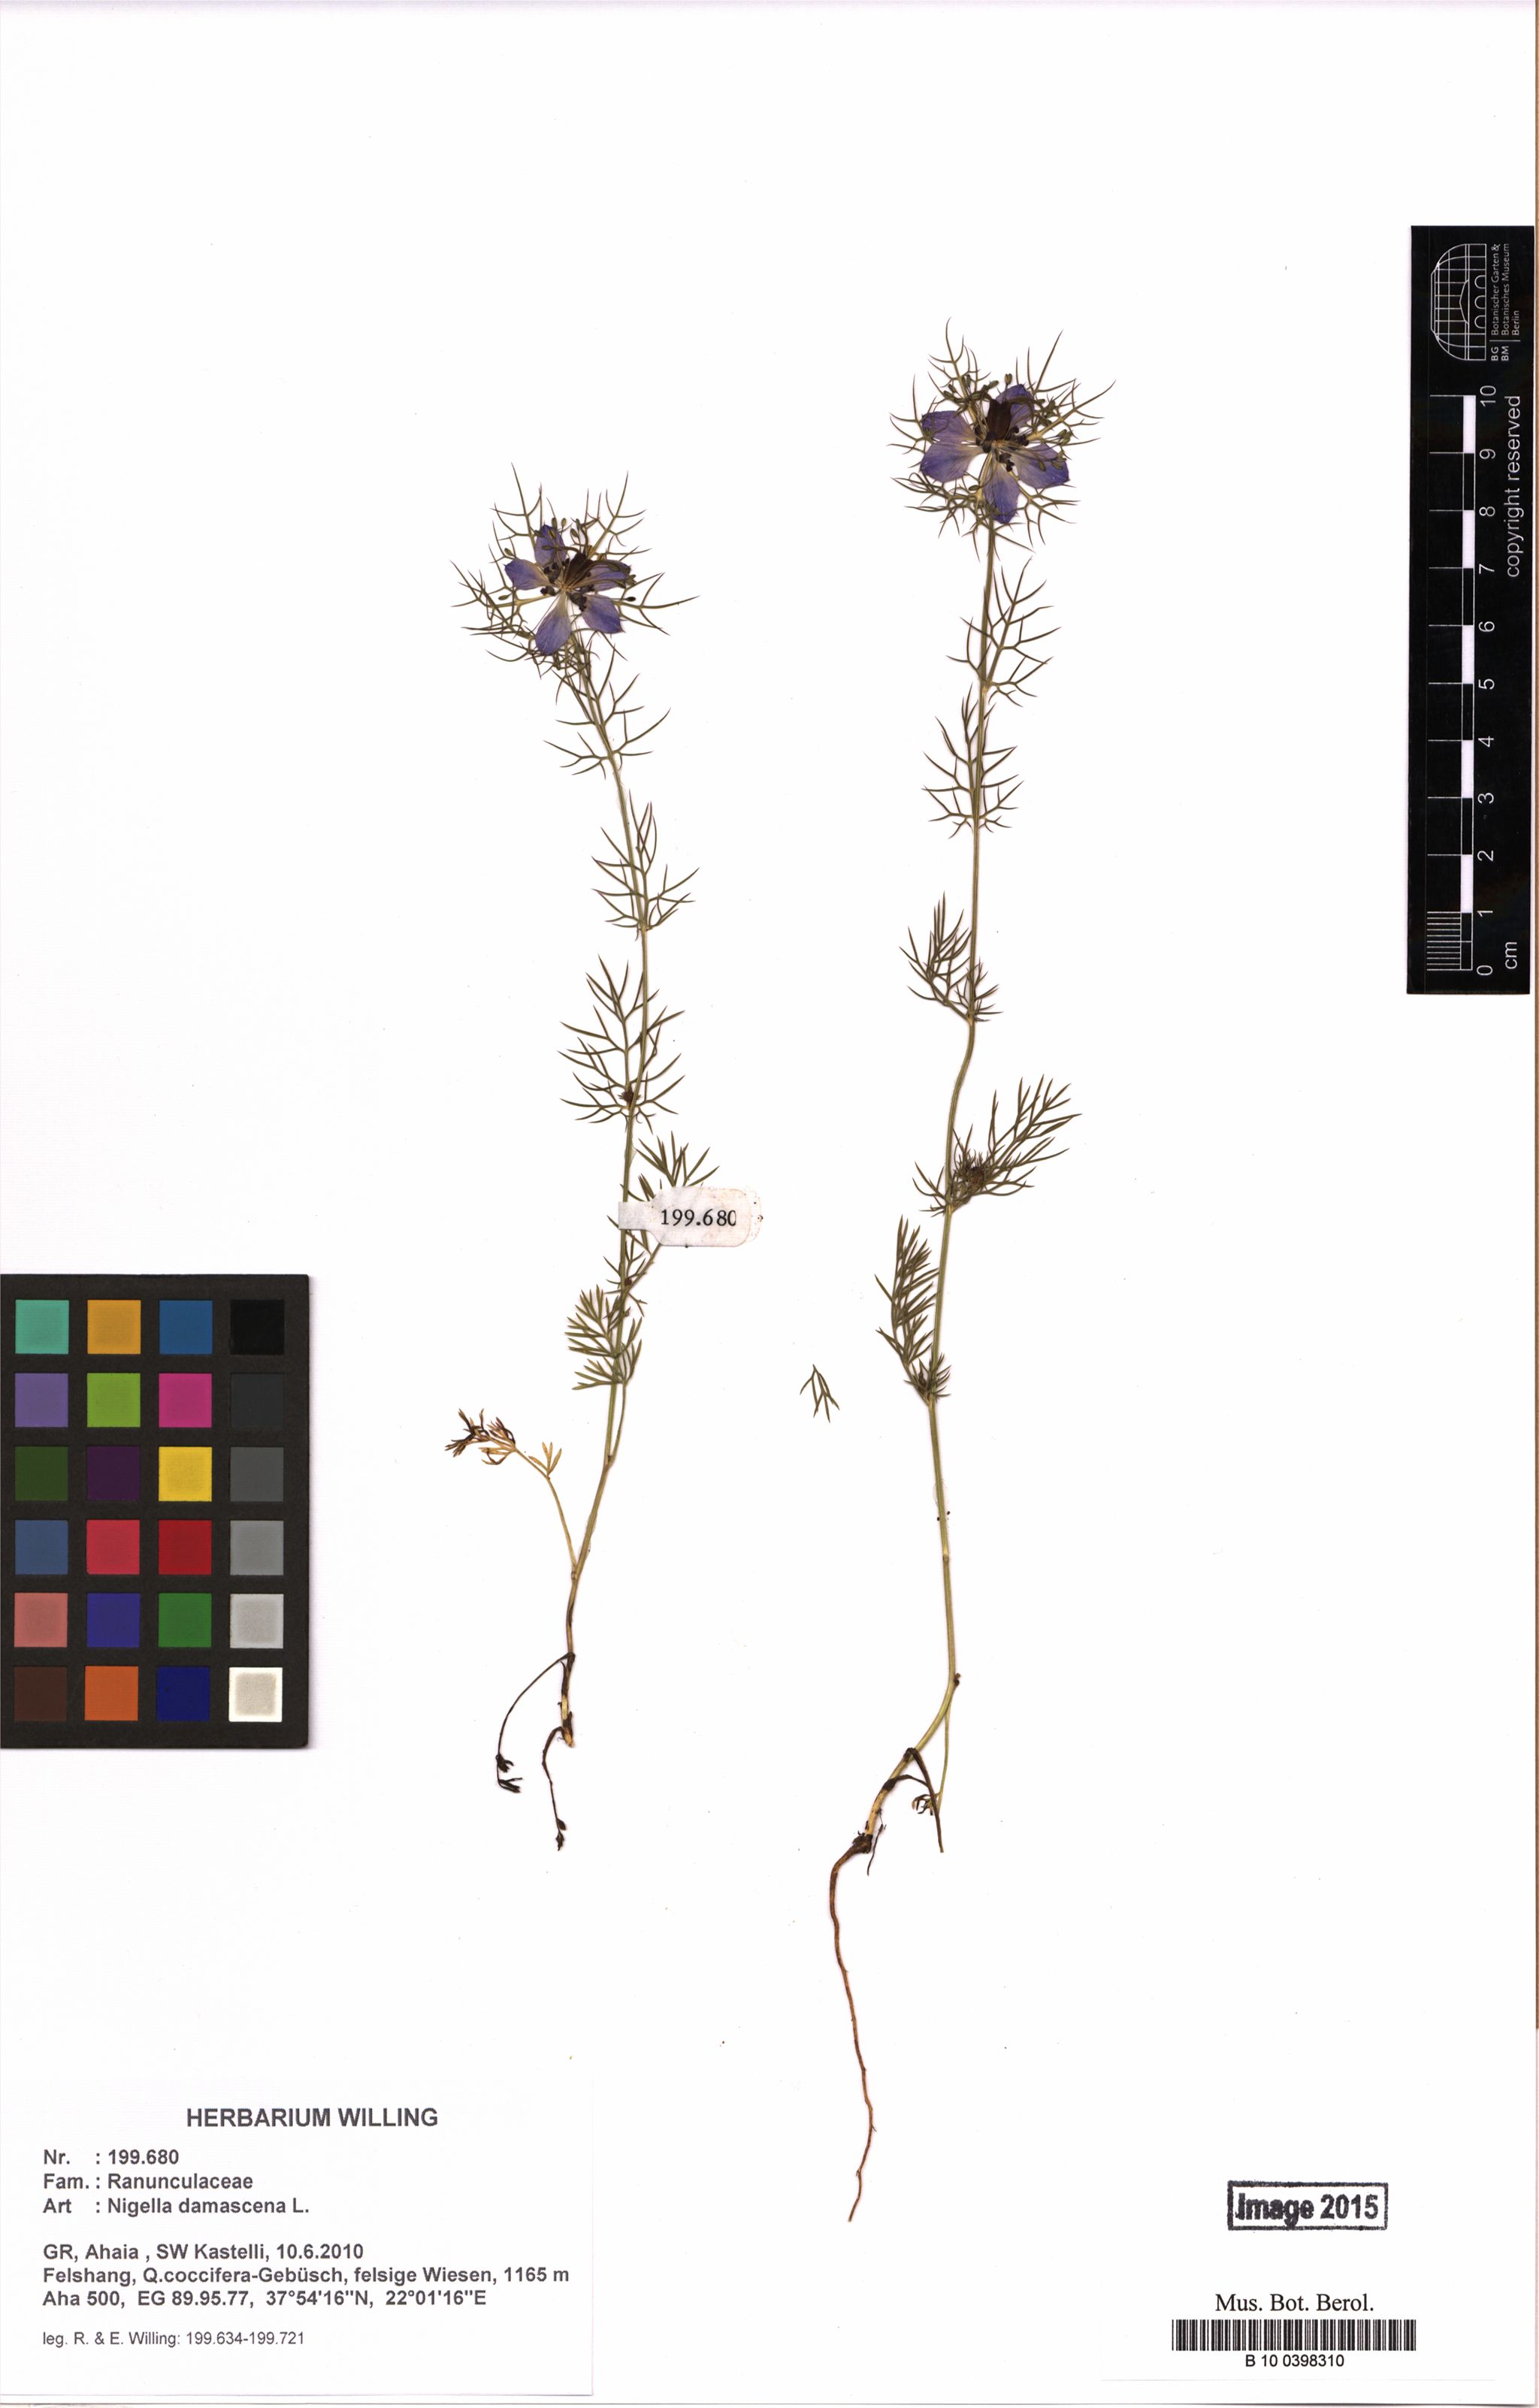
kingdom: Plantae
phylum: Tracheophyta
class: Magnoliopsida
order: Ranunculales
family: Ranunculaceae
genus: Nigella
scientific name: Nigella damascena
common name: Love-in-a-mist
